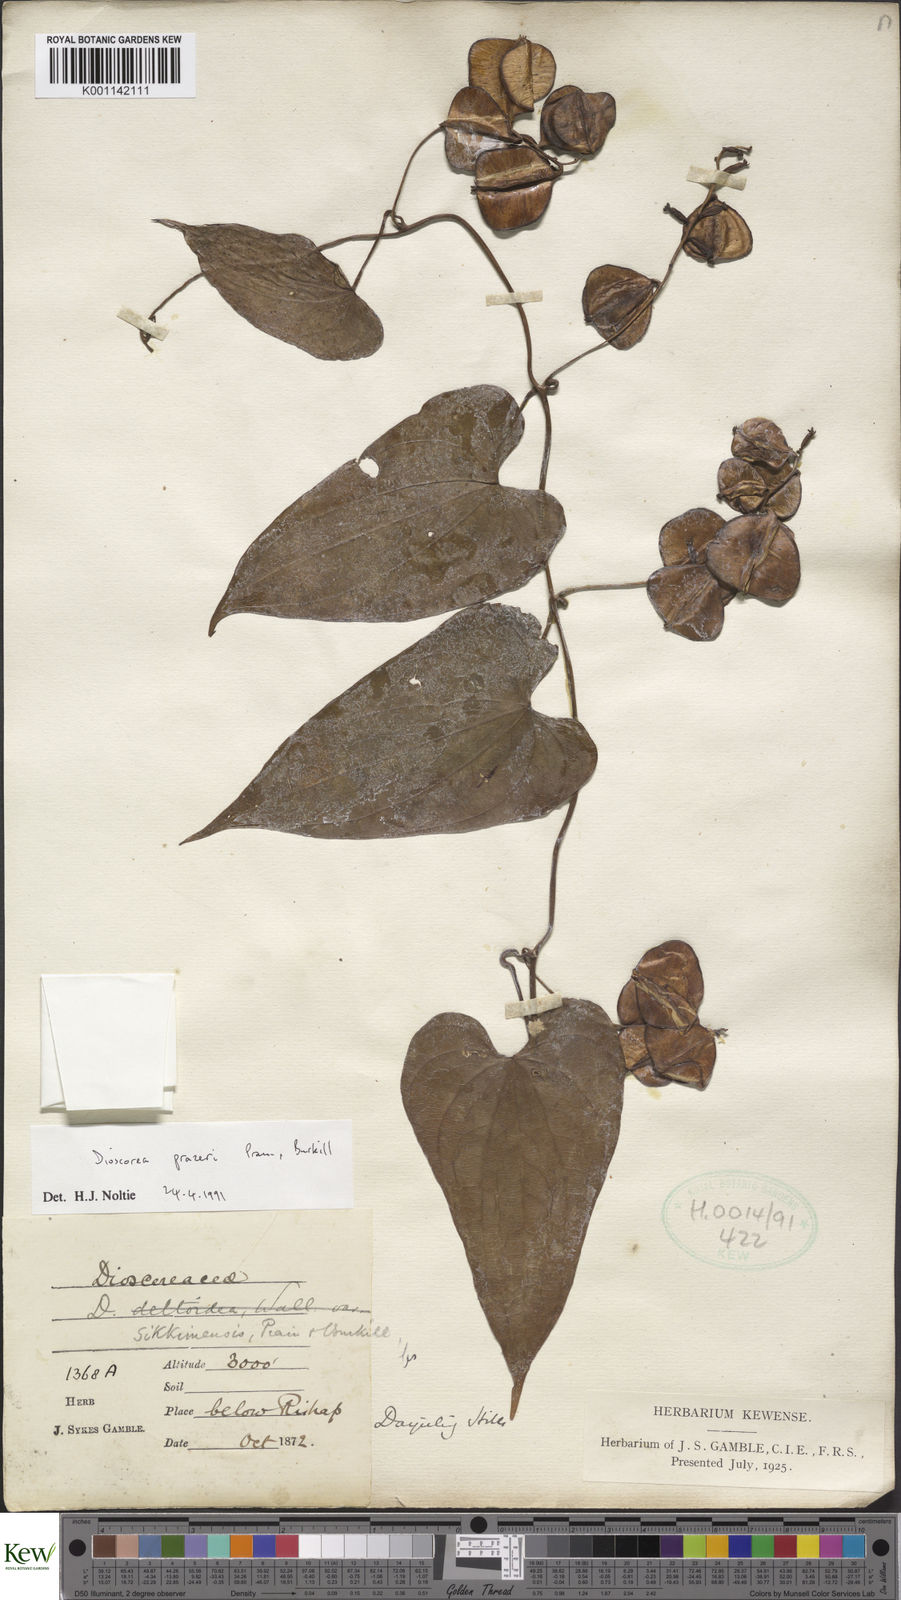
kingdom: Plantae
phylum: Tracheophyta
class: Liliopsida
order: Dioscoreales
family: Dioscoreaceae
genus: Dioscorea
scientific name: Dioscorea prazeri
